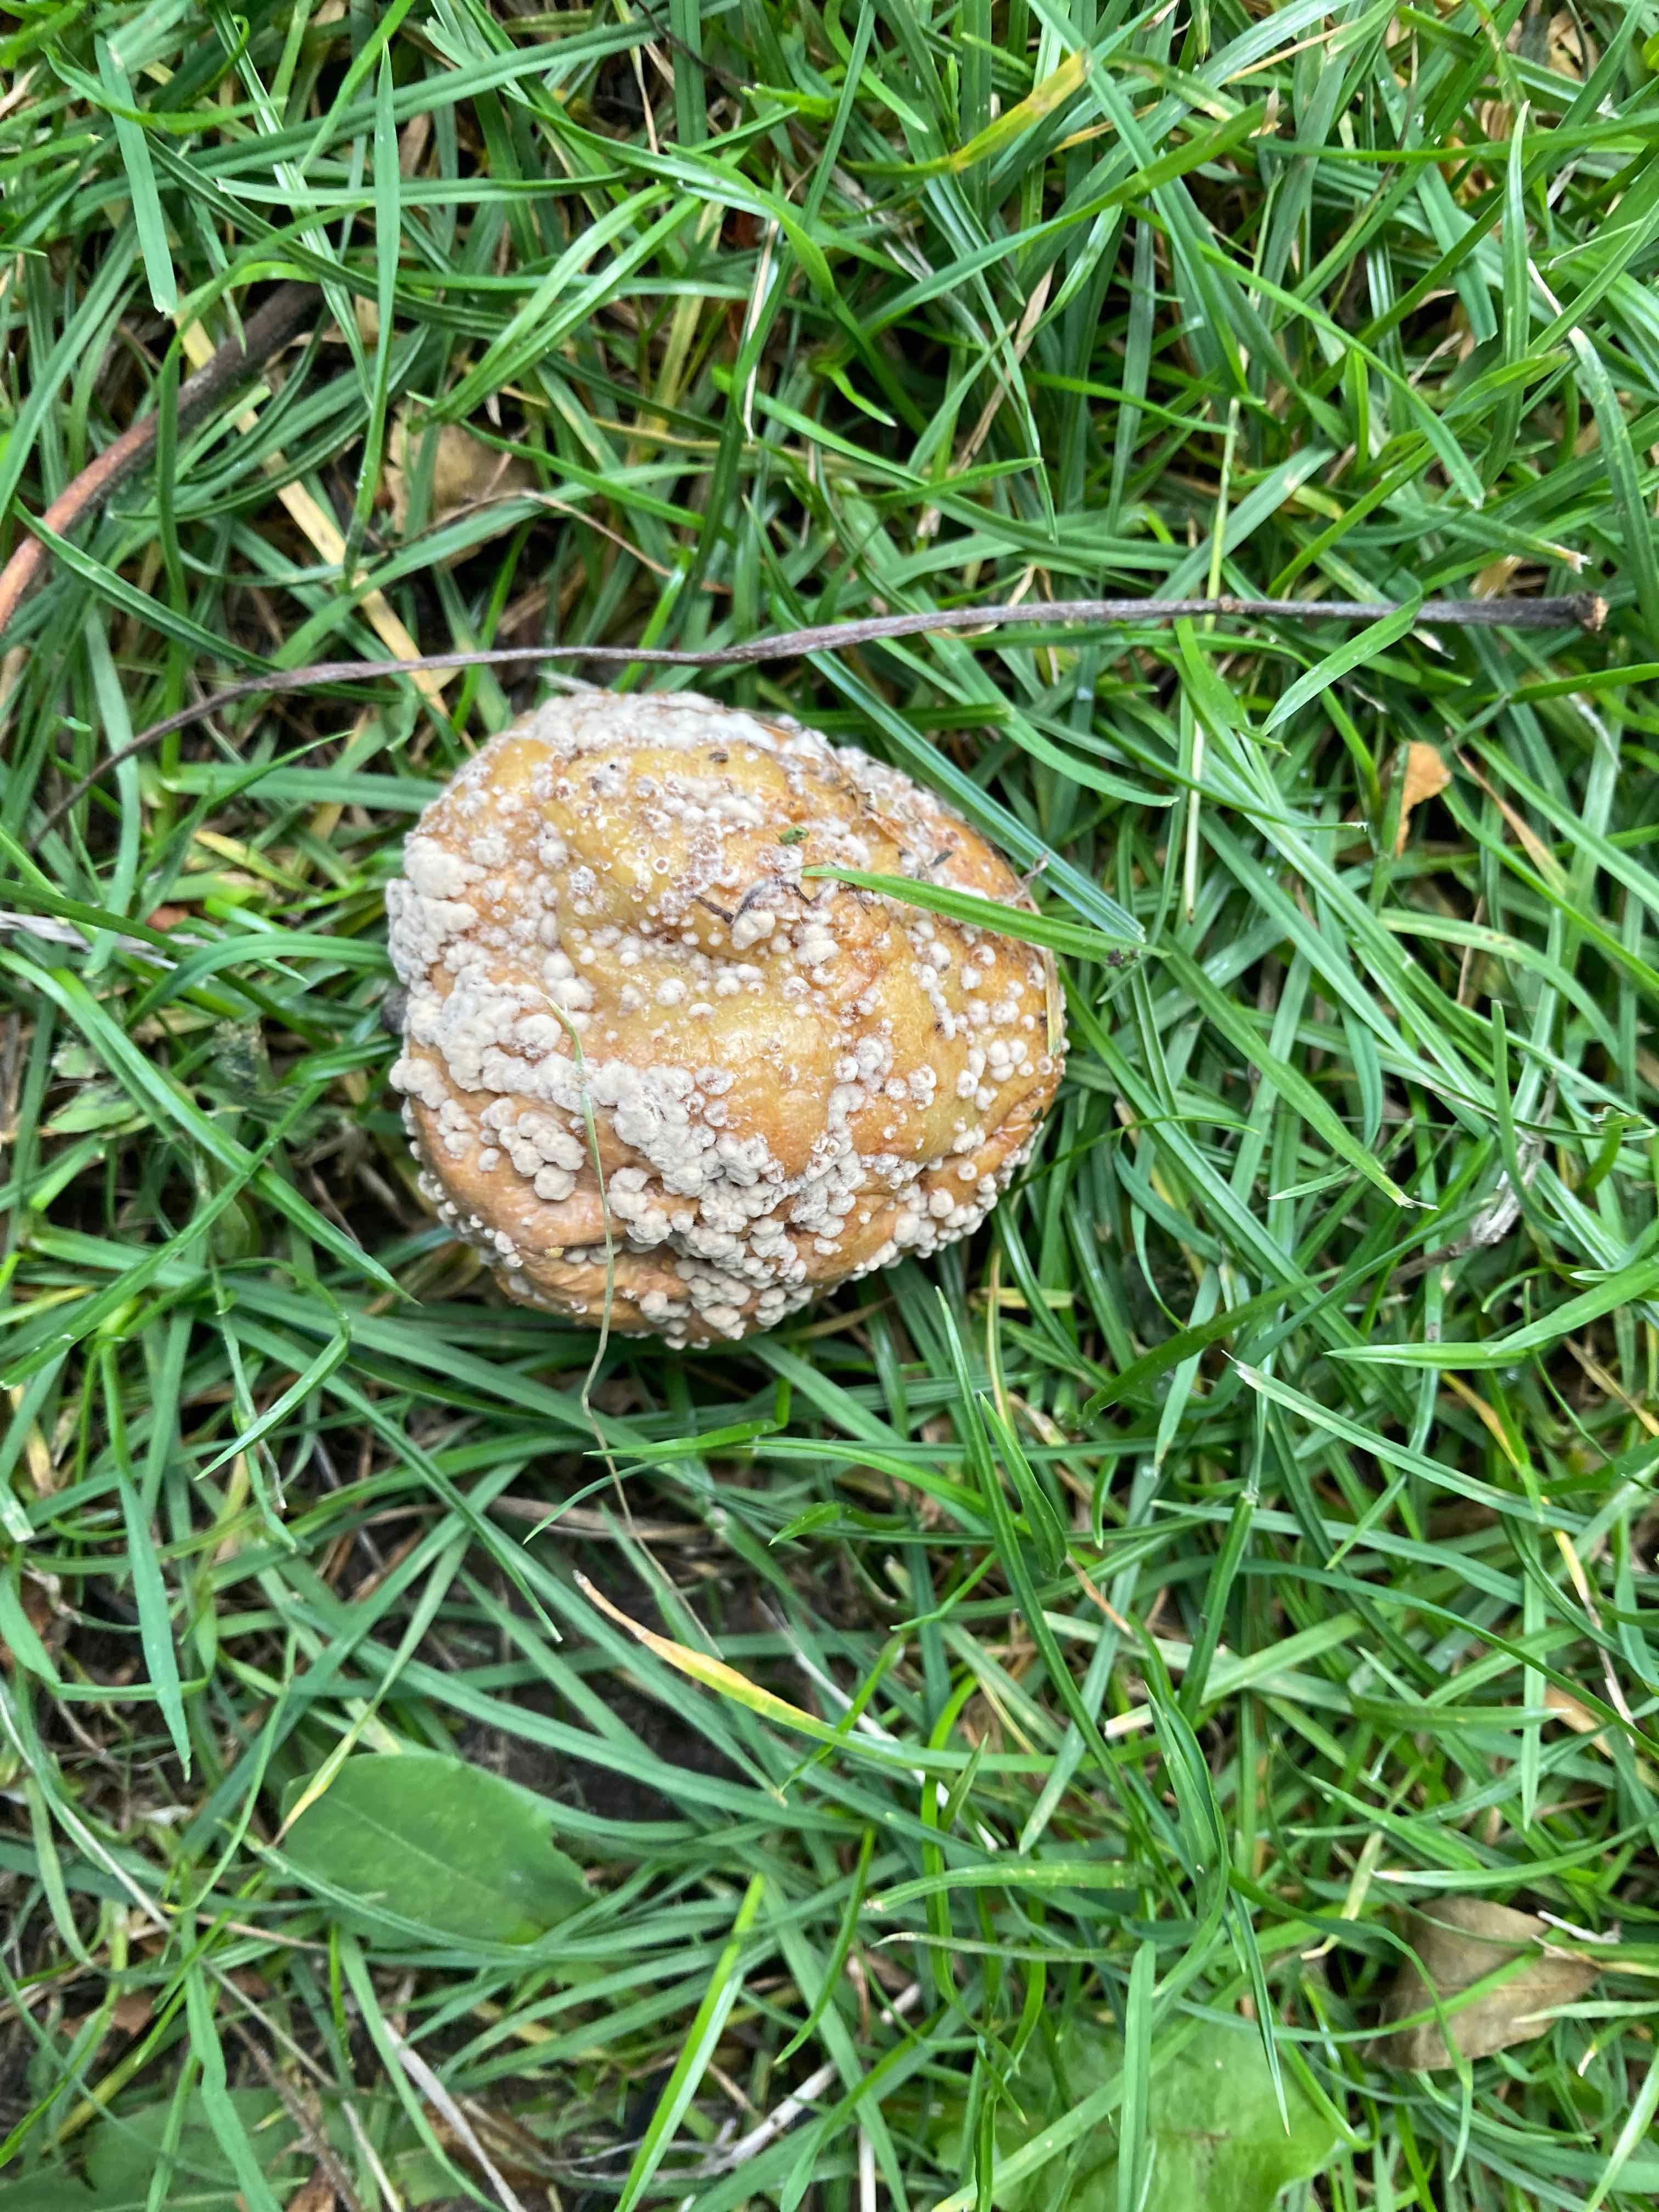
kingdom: Fungi
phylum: Ascomycota
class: Leotiomycetes
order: Helotiales
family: Sclerotiniaceae
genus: Monilinia
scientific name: Monilinia fructigena
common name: æble-knoldskive
